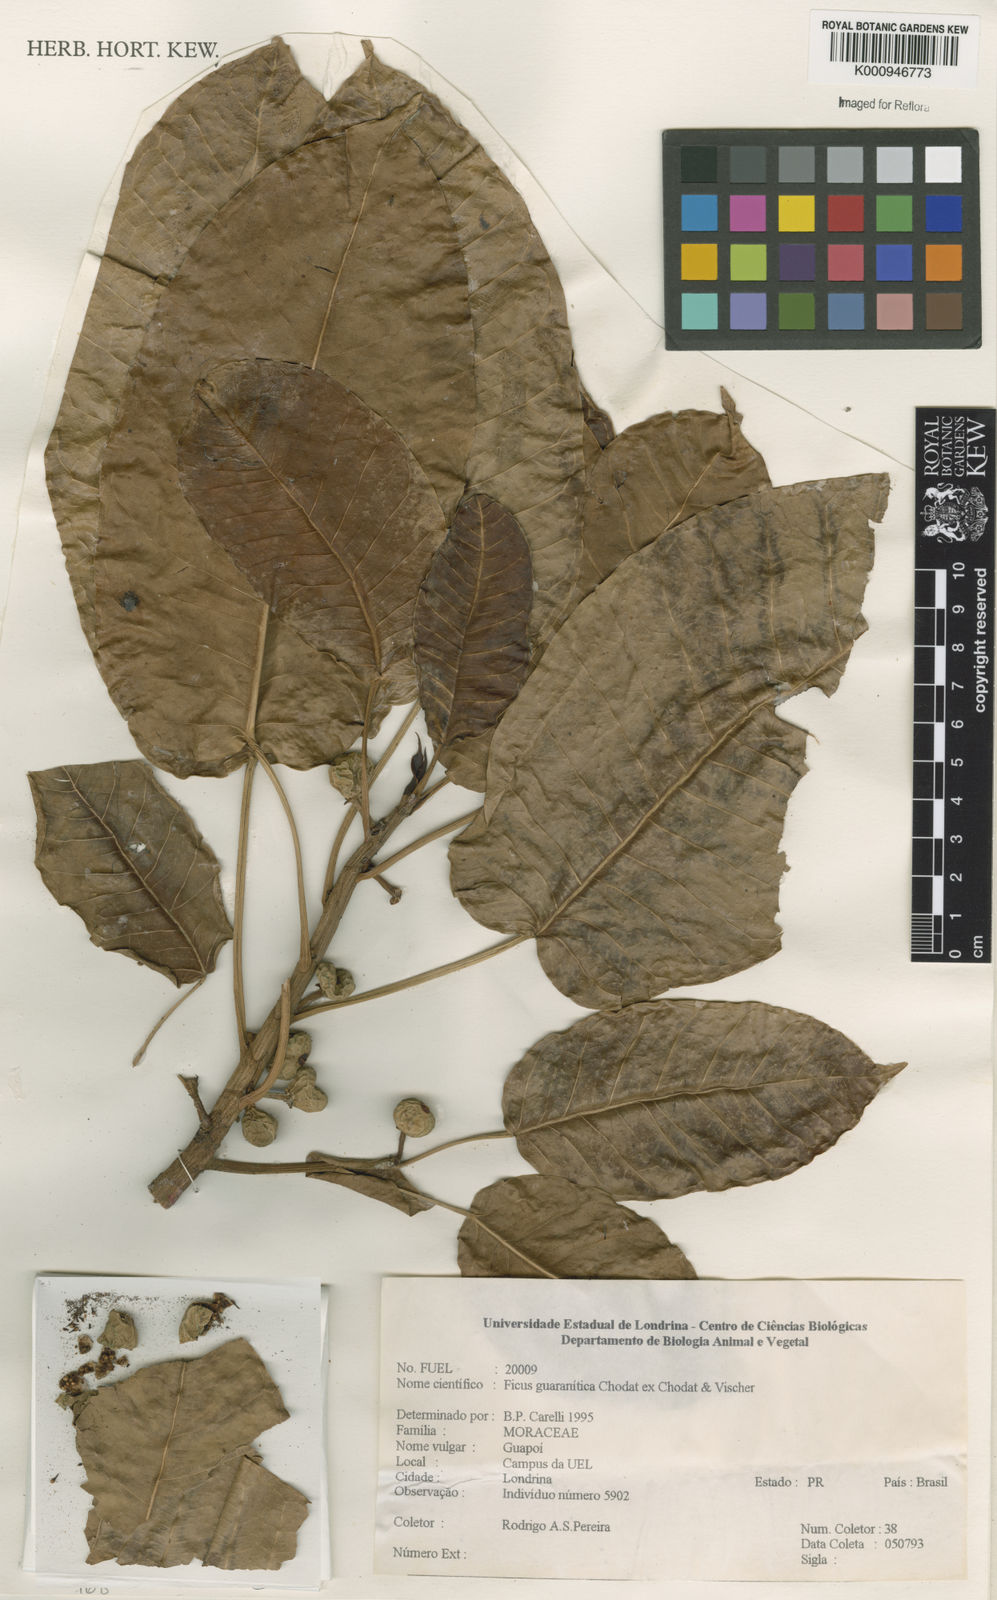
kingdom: Plantae
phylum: Tracheophyta
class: Magnoliopsida
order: Rosales
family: Moraceae
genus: Ficus
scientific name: Ficus guaranitica
